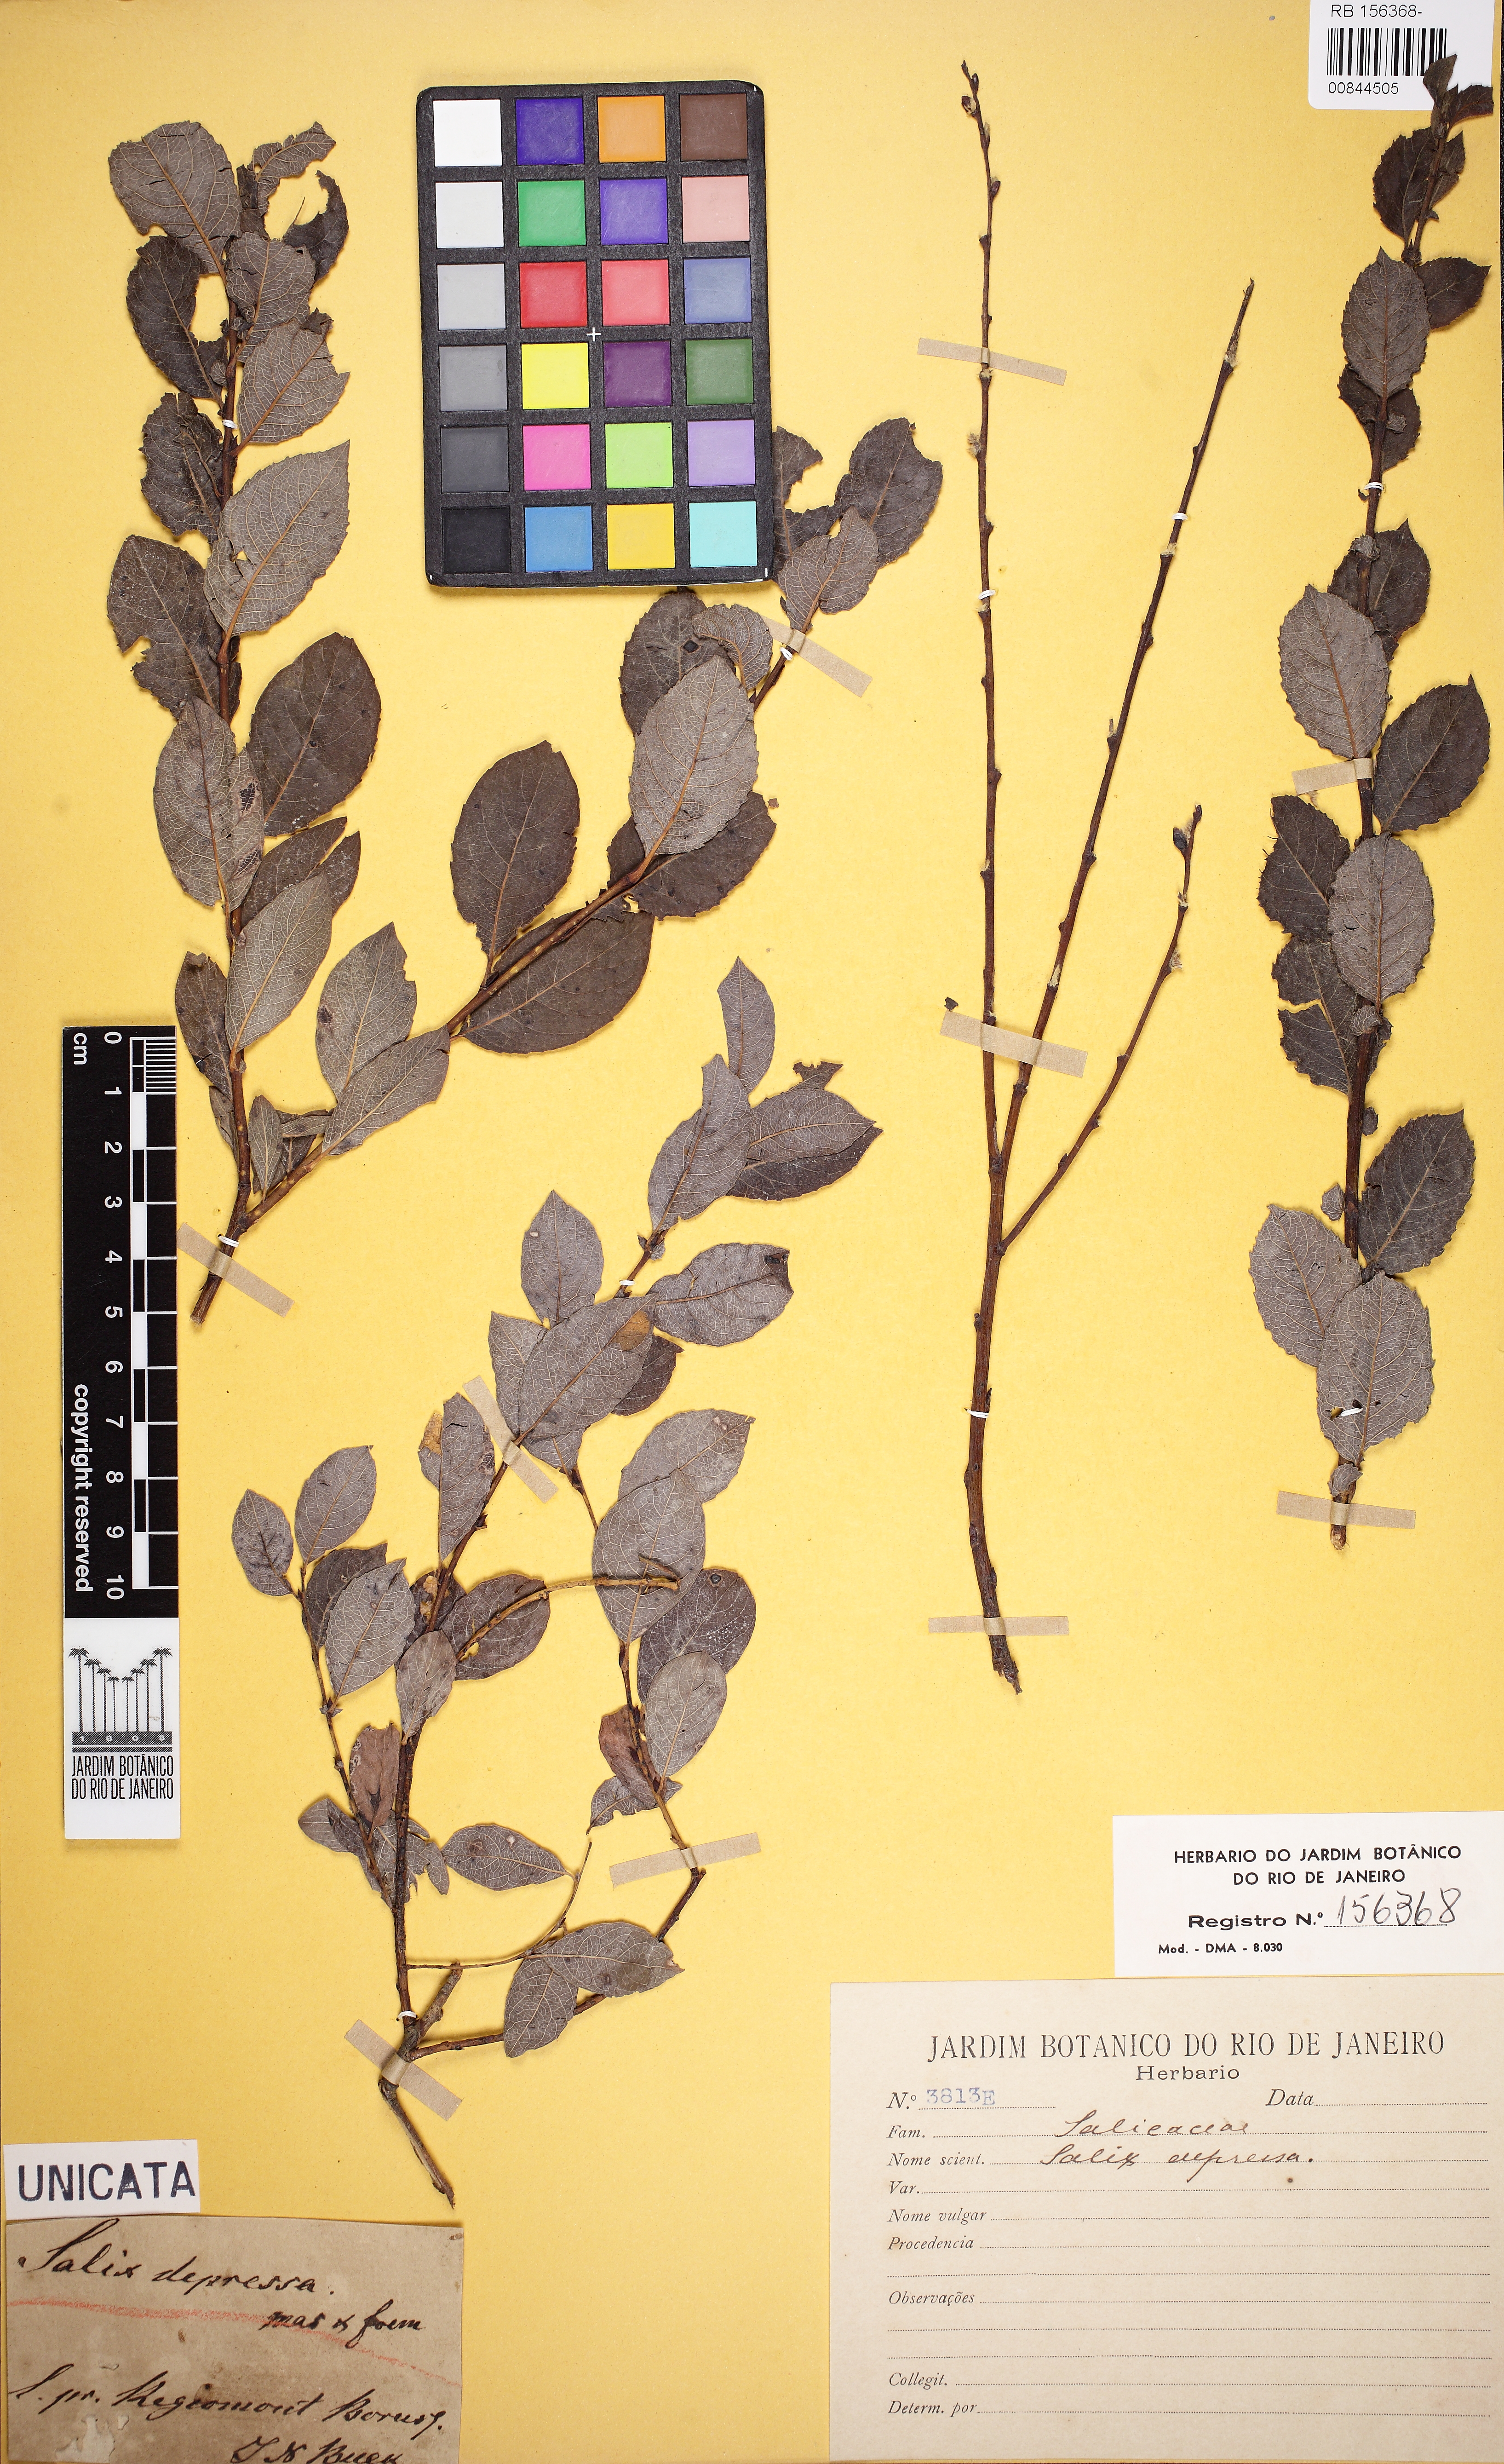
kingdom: Plantae
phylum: Tracheophyta
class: Magnoliopsida
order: Malpighiales
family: Salicaceae
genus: Salix
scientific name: Salix lanata
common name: Woolly willow
